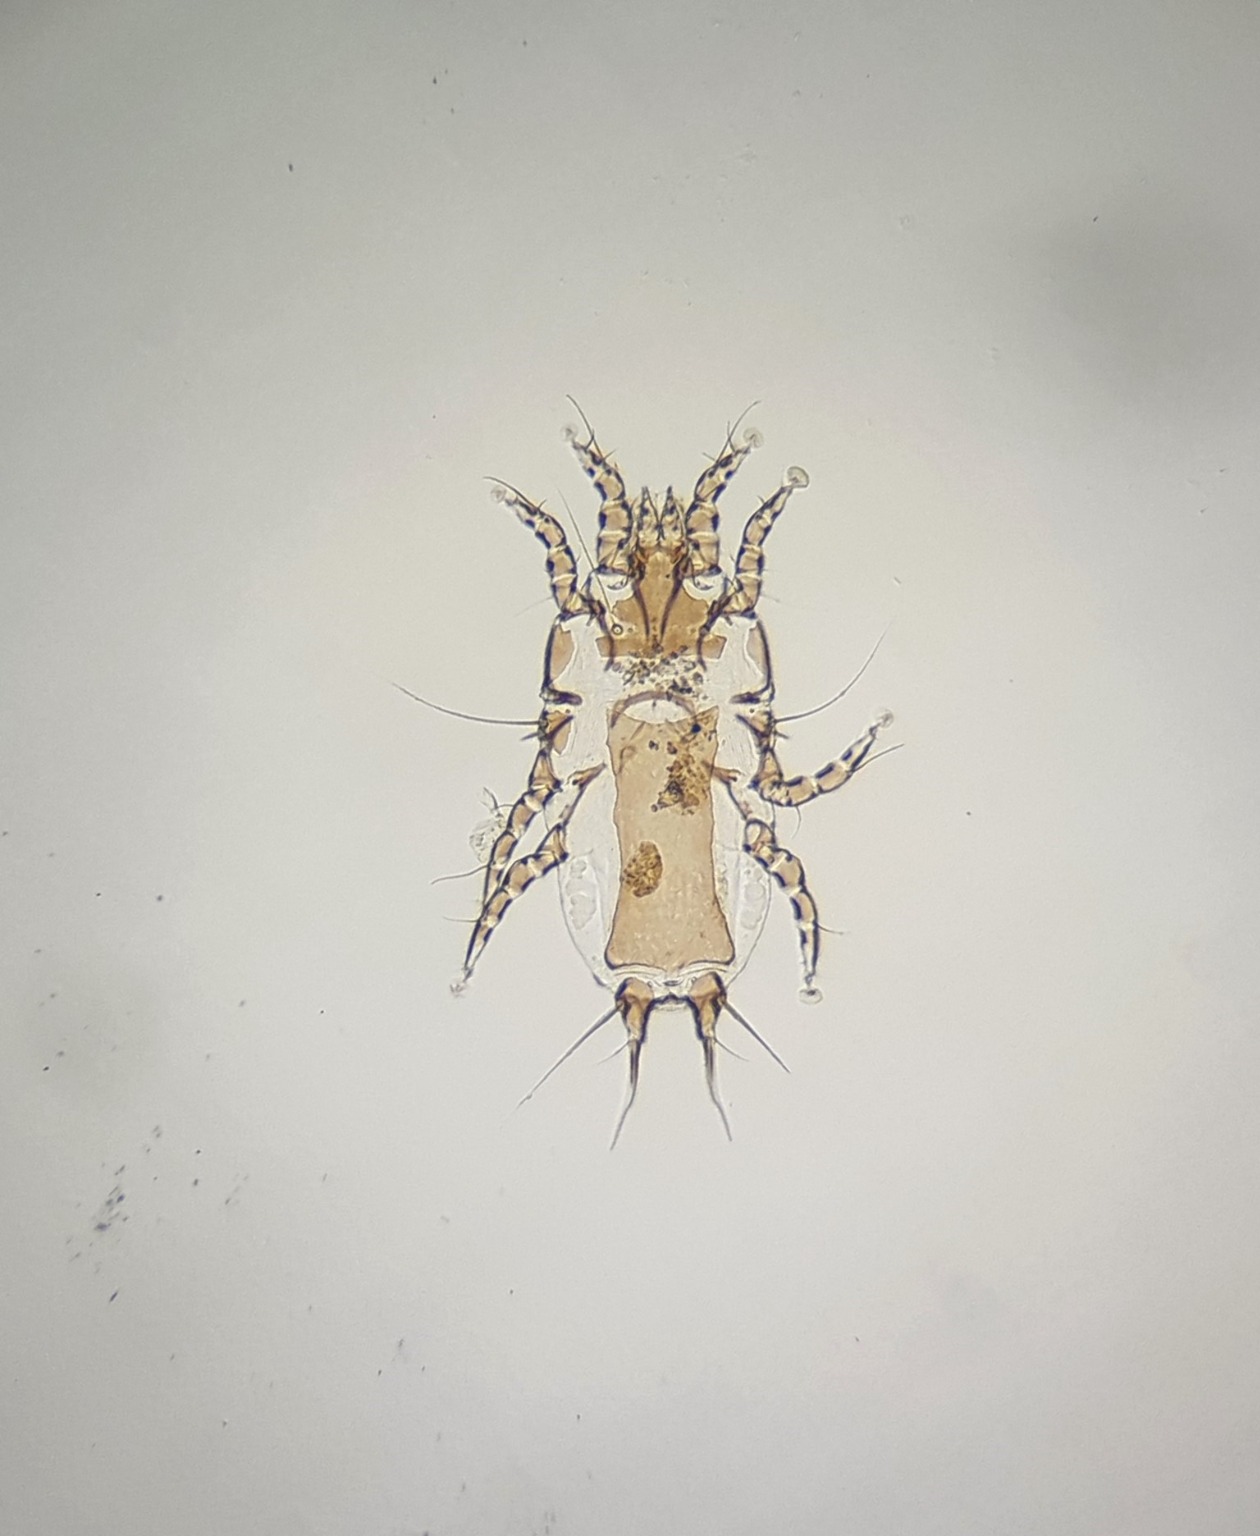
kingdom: Animalia
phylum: Arthropoda
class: Arachnida
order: Sarcoptiformes
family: Proctophyllodidae
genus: Proctophyllodes
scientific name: Proctophyllodes musicus
